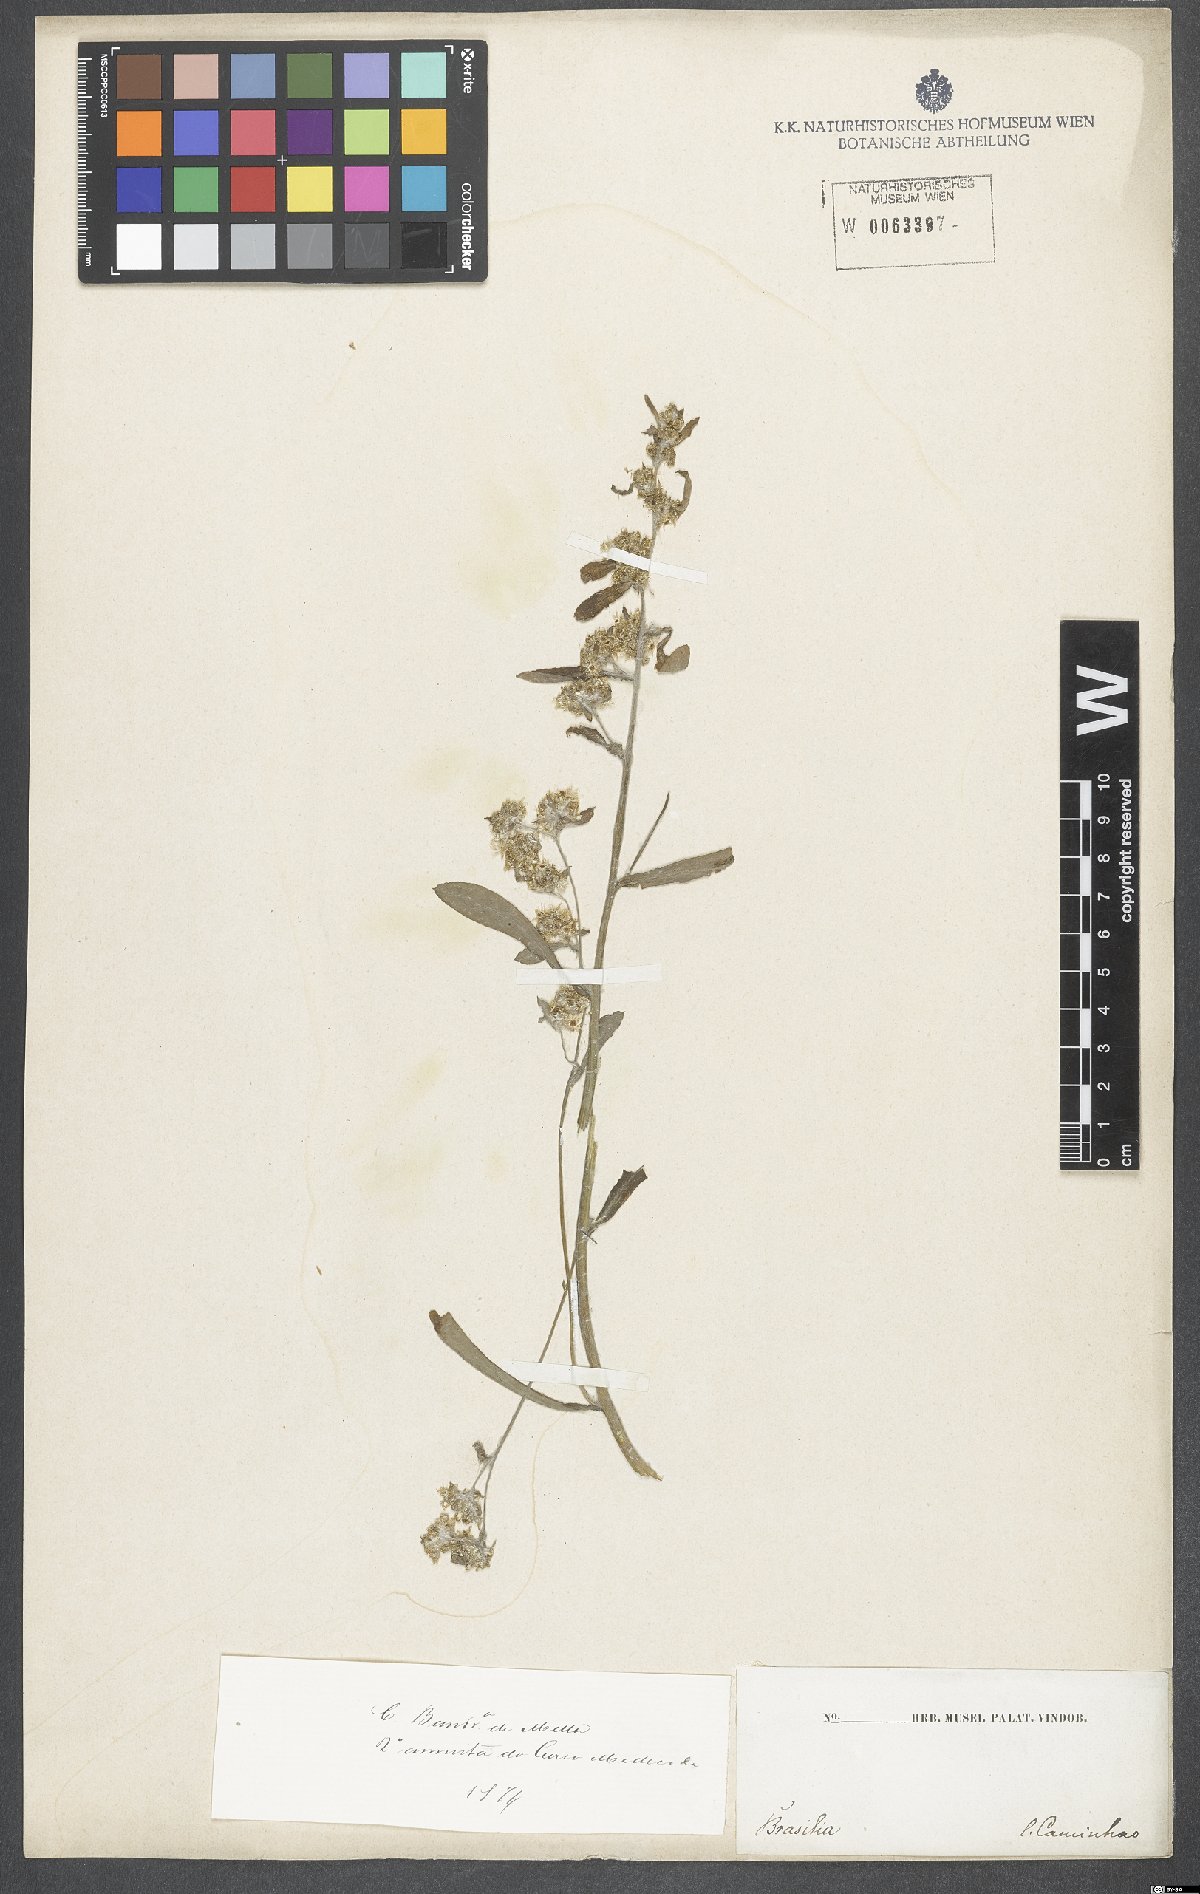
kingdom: Plantae
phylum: Tracheophyta
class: Magnoliopsida
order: Asterales
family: Asteraceae
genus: Gnaphalium
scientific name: Gnaphalium
